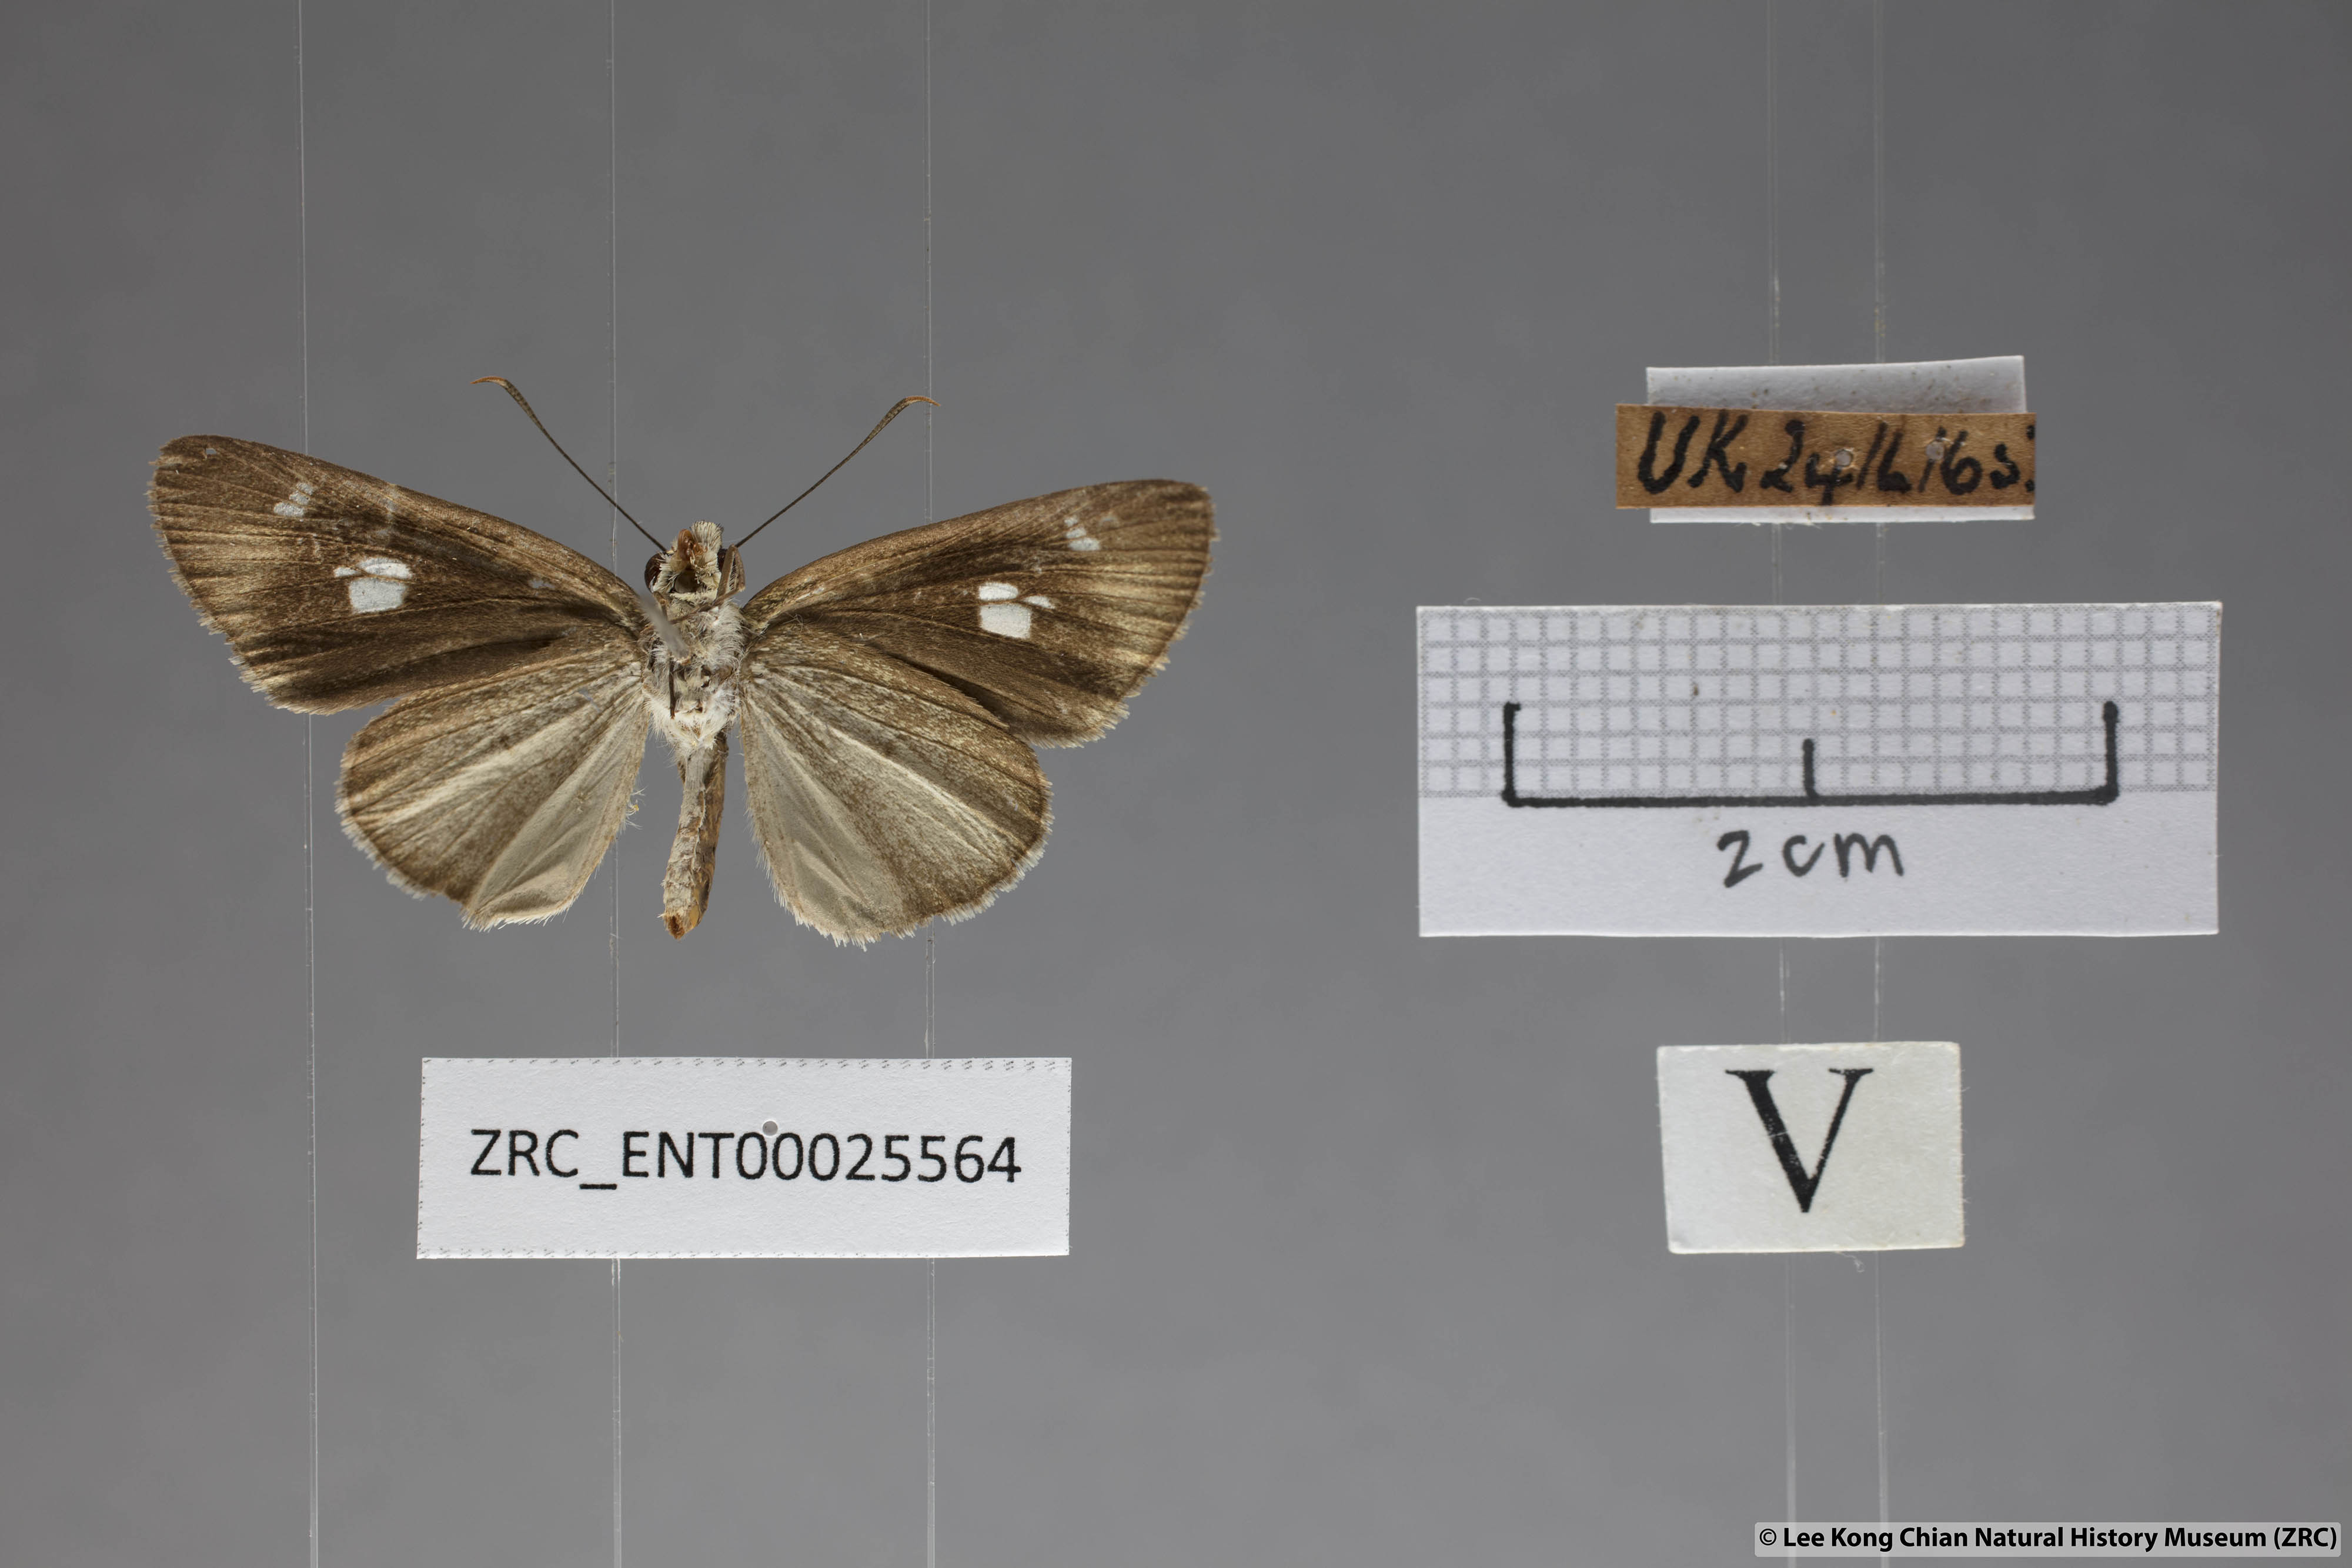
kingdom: Animalia
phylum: Arthropoda
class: Insecta
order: Lepidoptera
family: Hesperiidae
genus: Suada
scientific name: Suada swerga
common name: Grass bob
